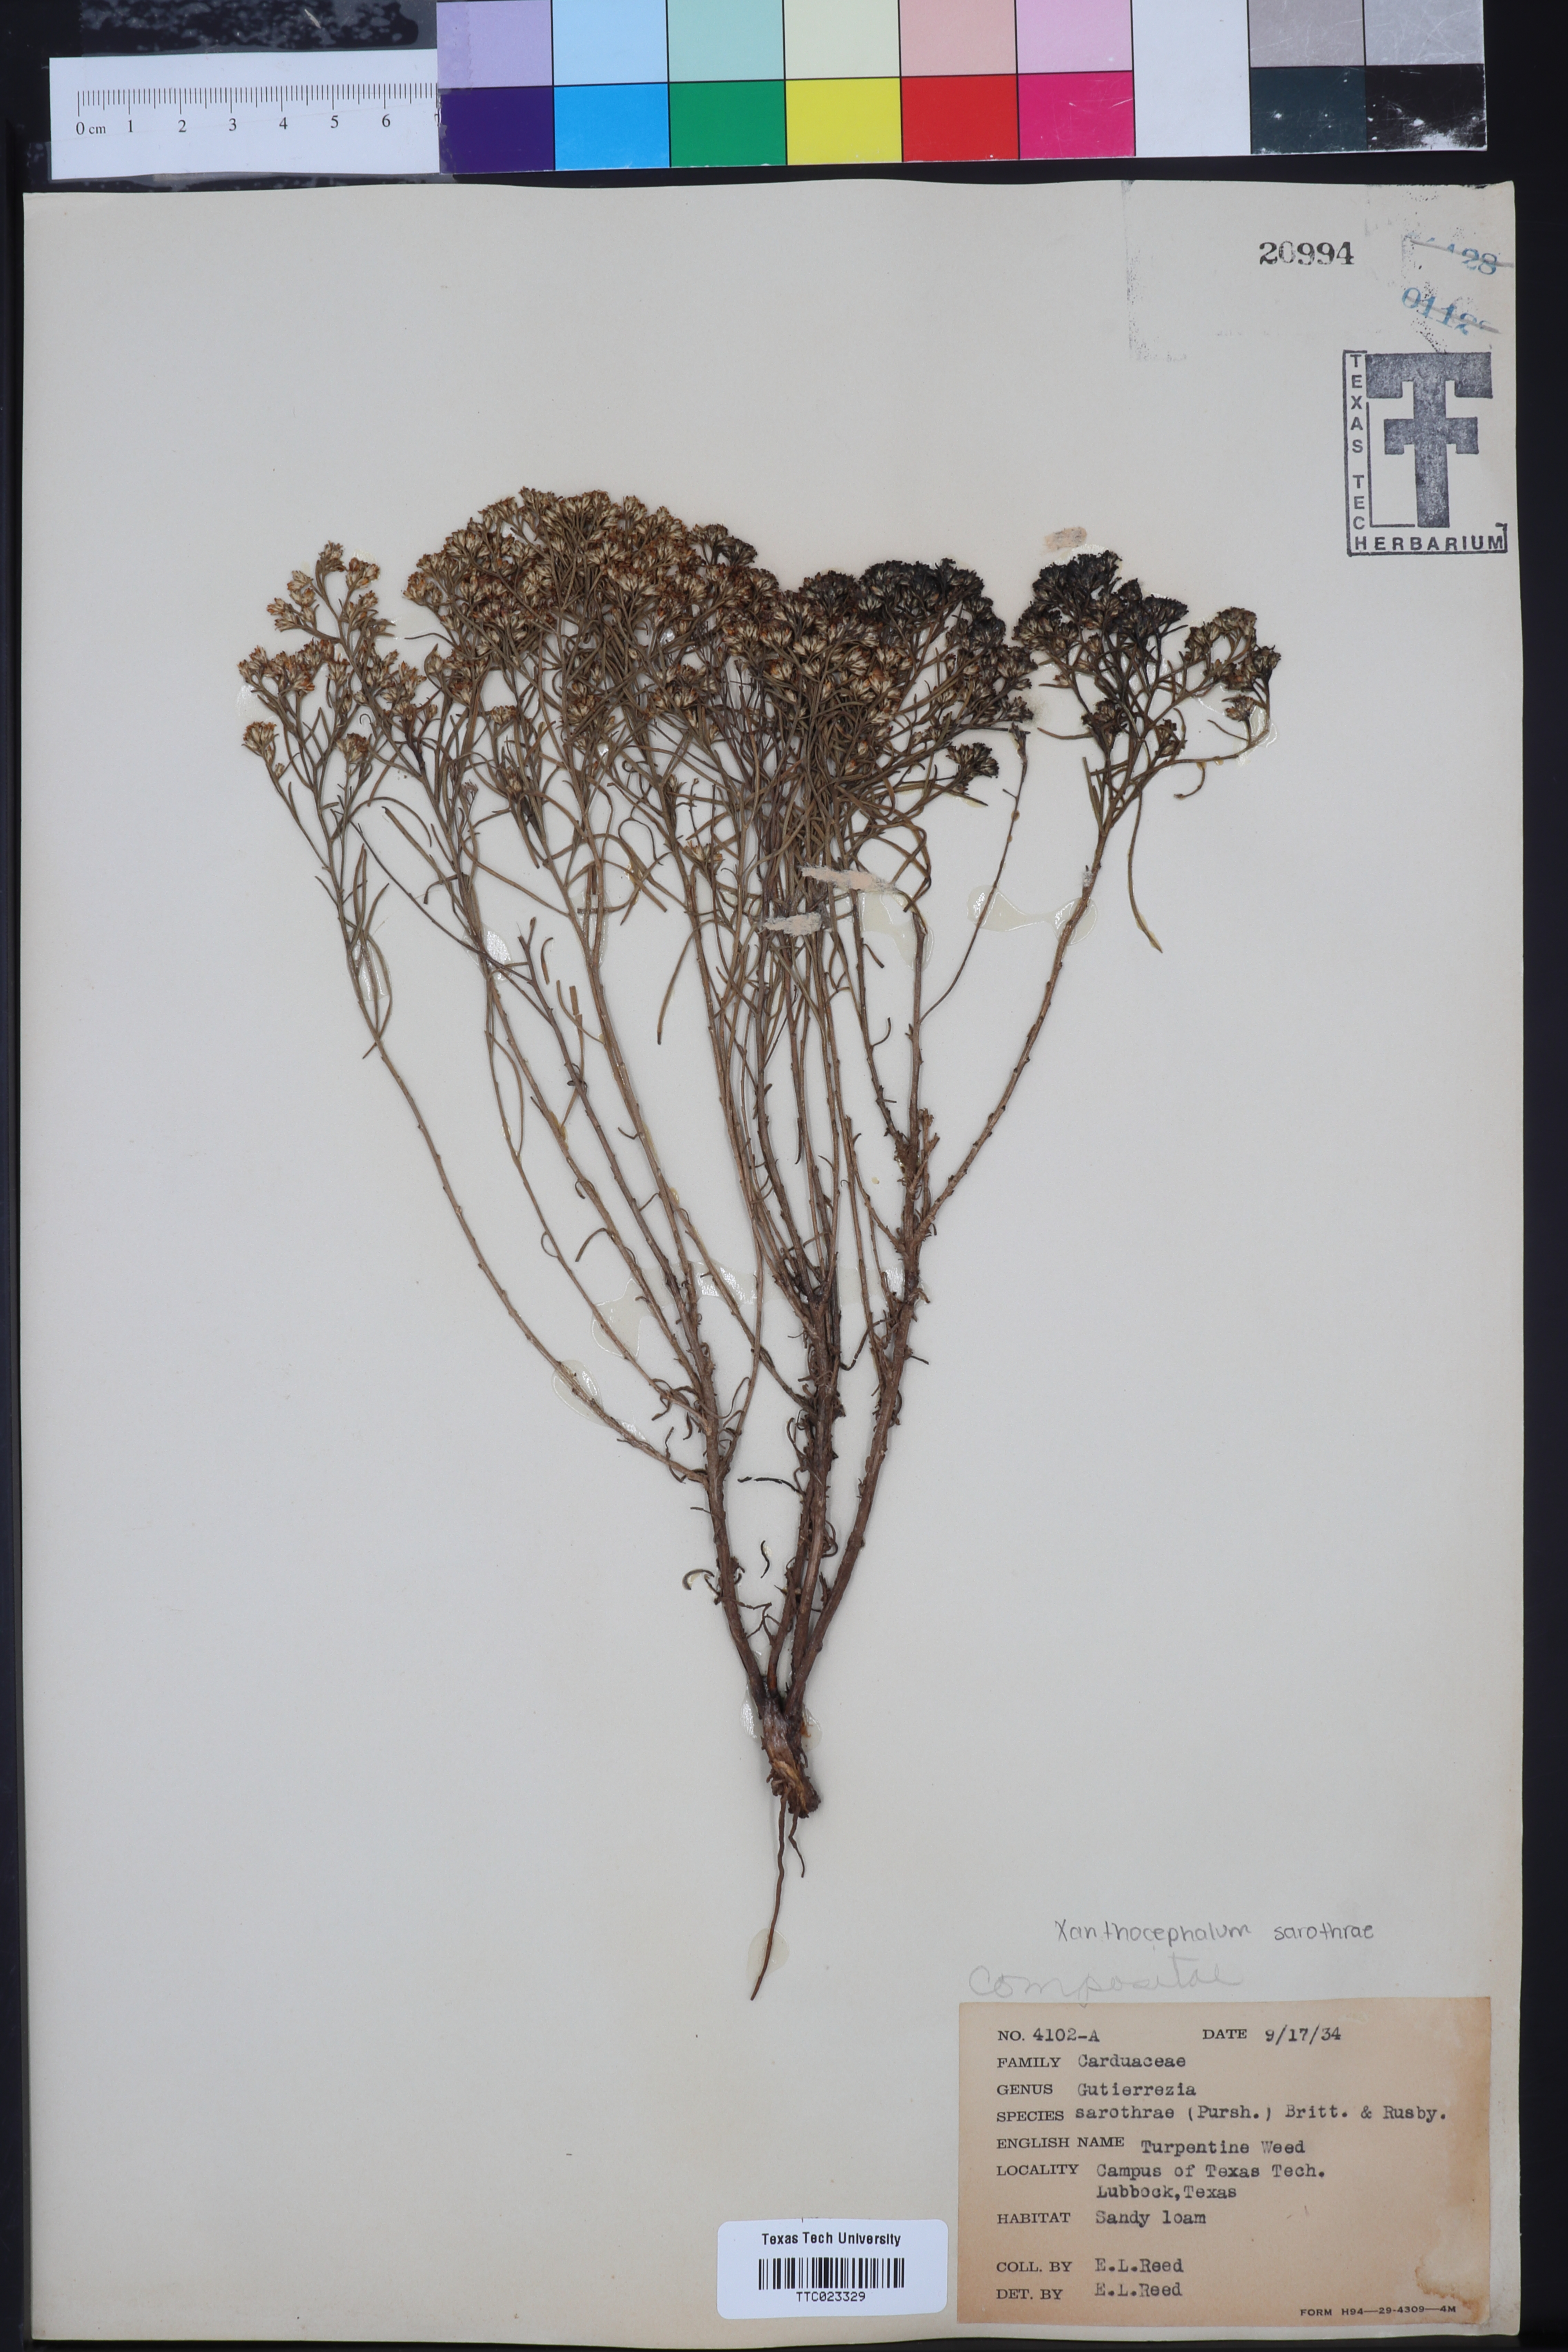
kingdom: Plantae
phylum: Tracheophyta
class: Magnoliopsida
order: Asterales
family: Asteraceae
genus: Gutierrezia
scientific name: Gutierrezia sarothrae
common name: Broom snakeweed
